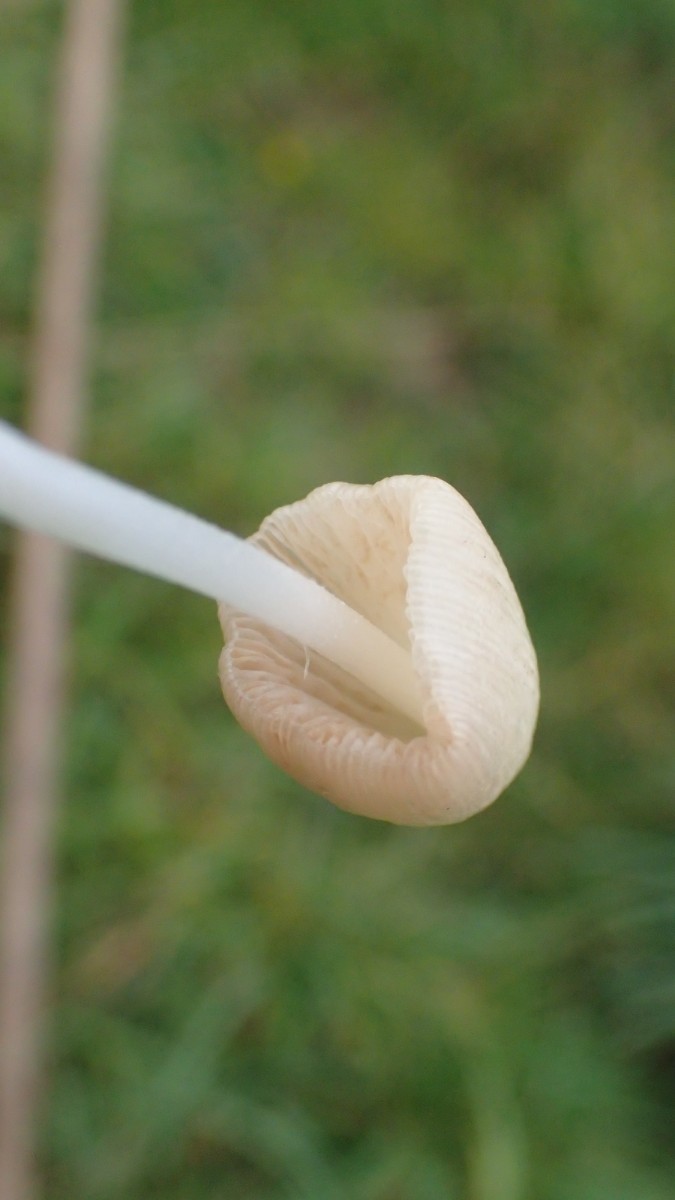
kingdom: Fungi
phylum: Basidiomycota
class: Agaricomycetes
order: Agaricales
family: Bolbitiaceae
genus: Conocybe
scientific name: Conocybe apala
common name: mælkehvid keglehat
